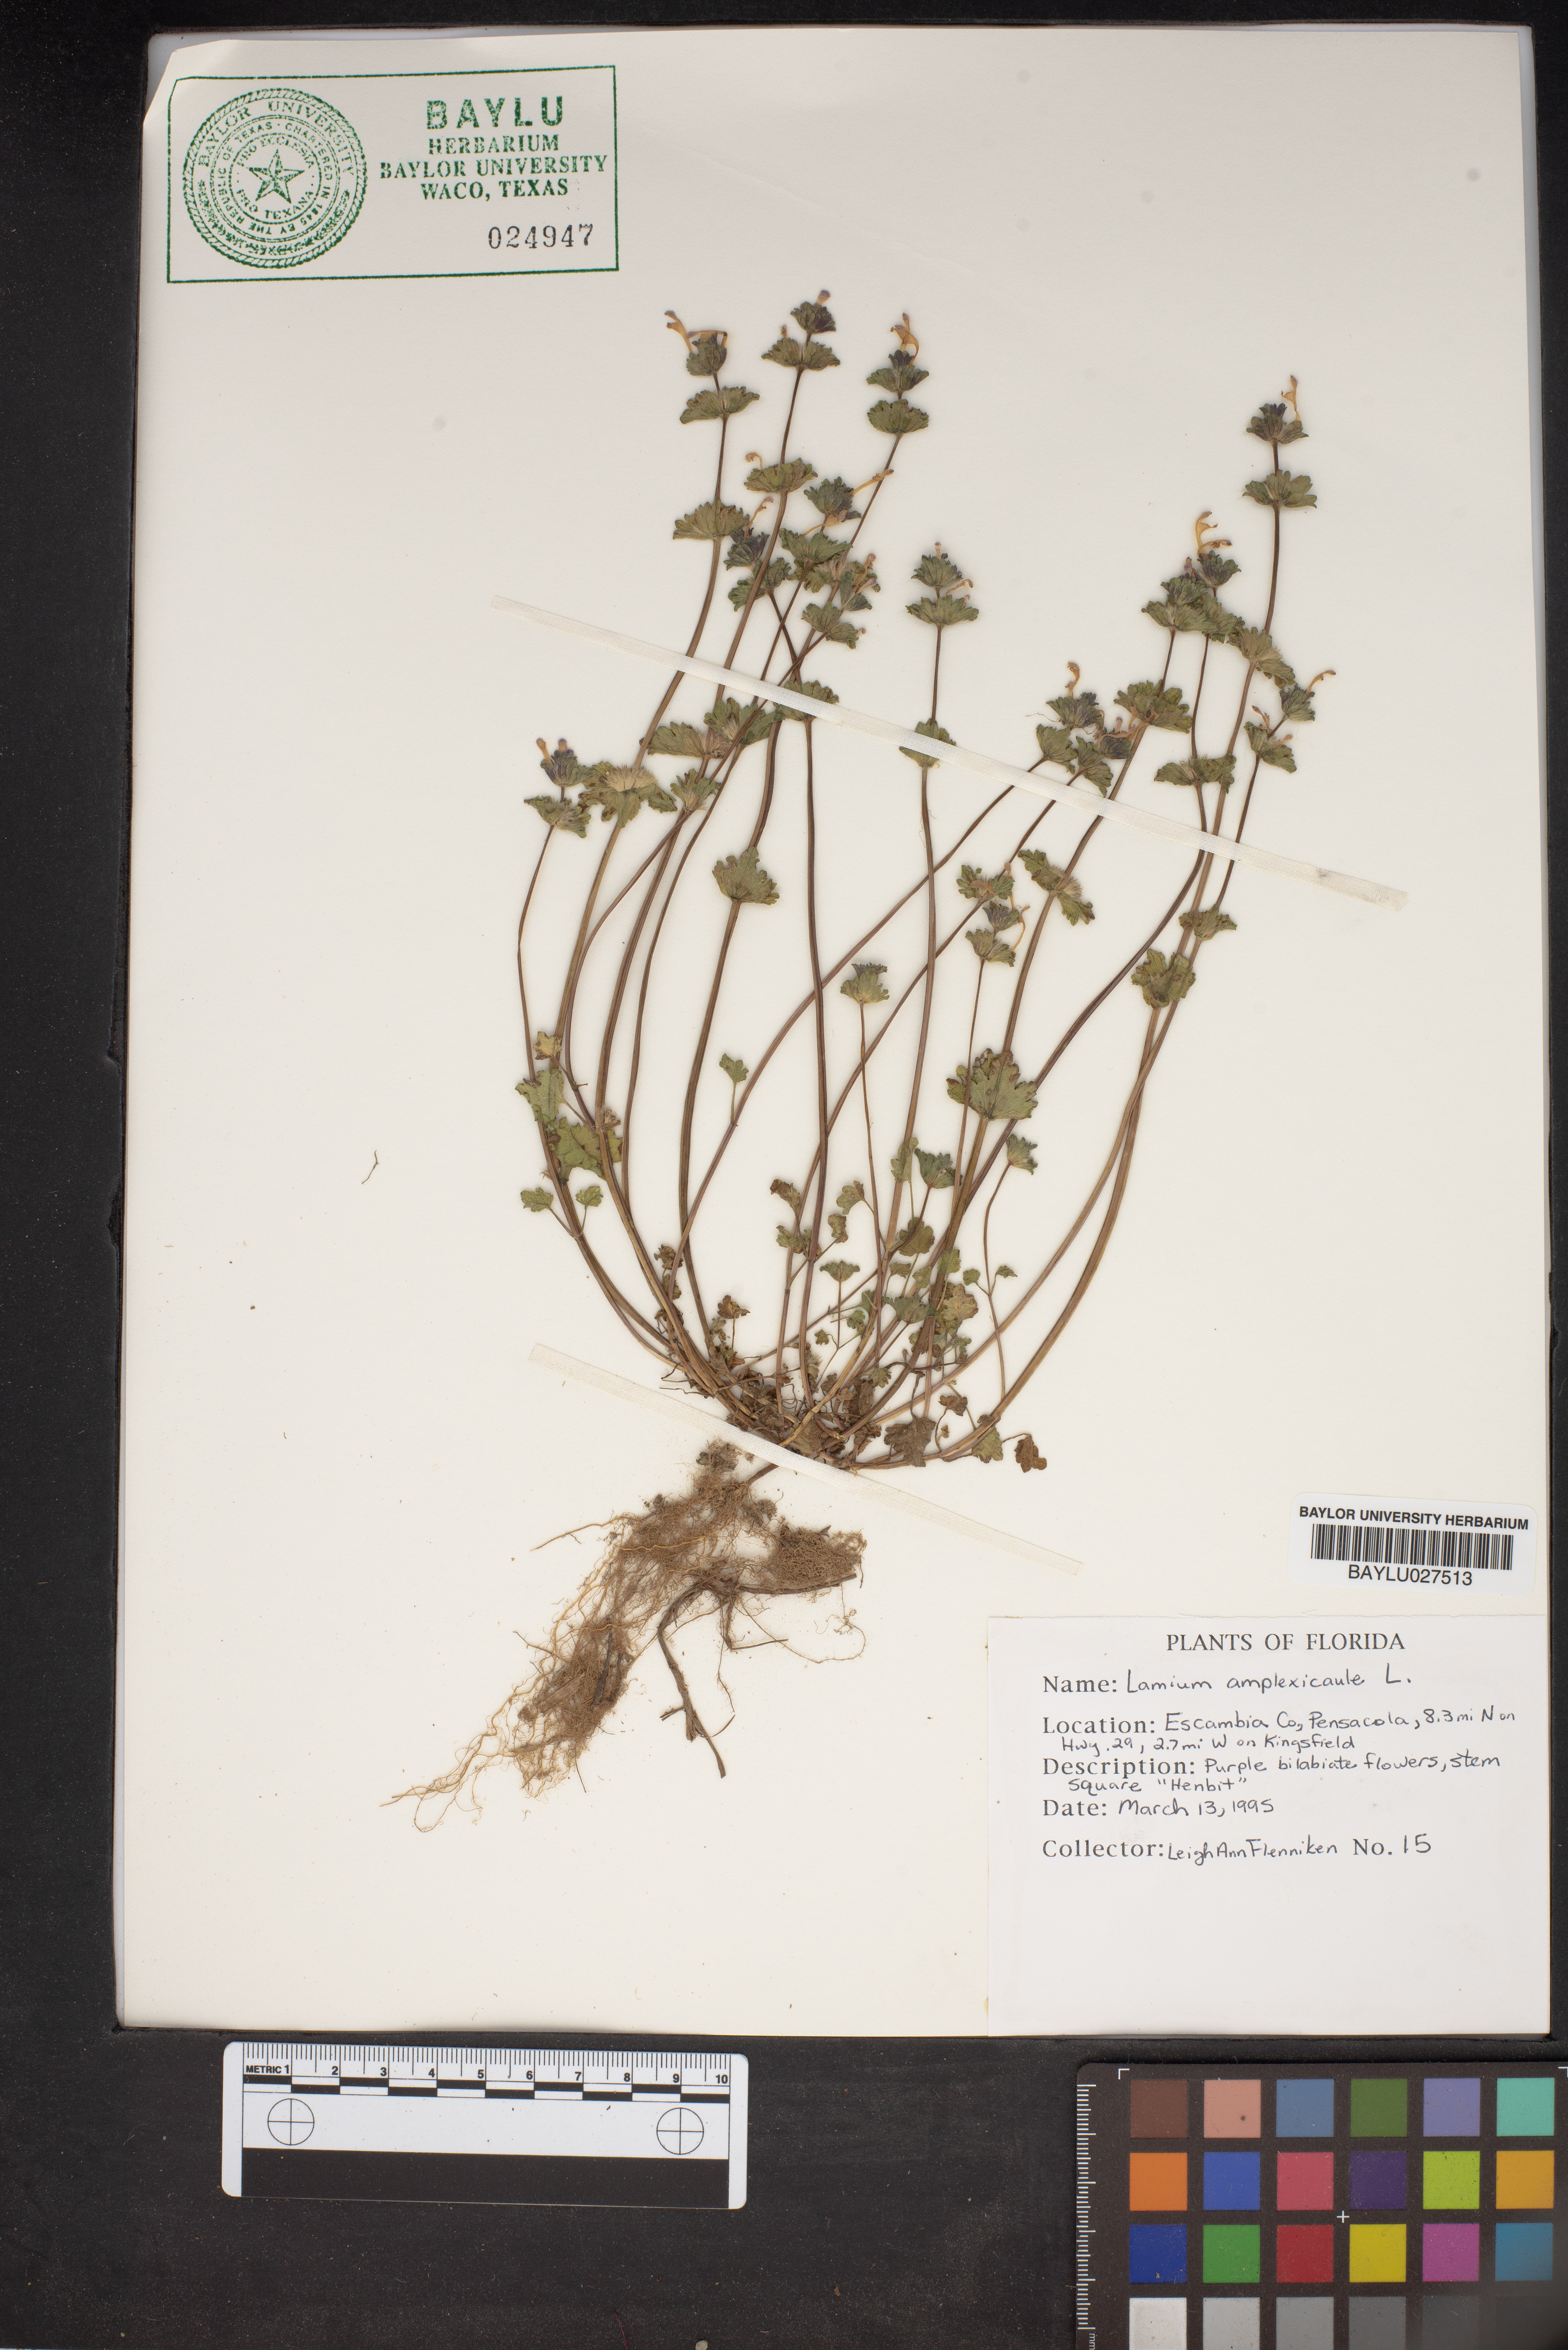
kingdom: Plantae
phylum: Tracheophyta
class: Magnoliopsida
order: Lamiales
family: Lamiaceae
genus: Lamium
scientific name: Lamium amplexicaule
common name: Henbit dead-nettle
